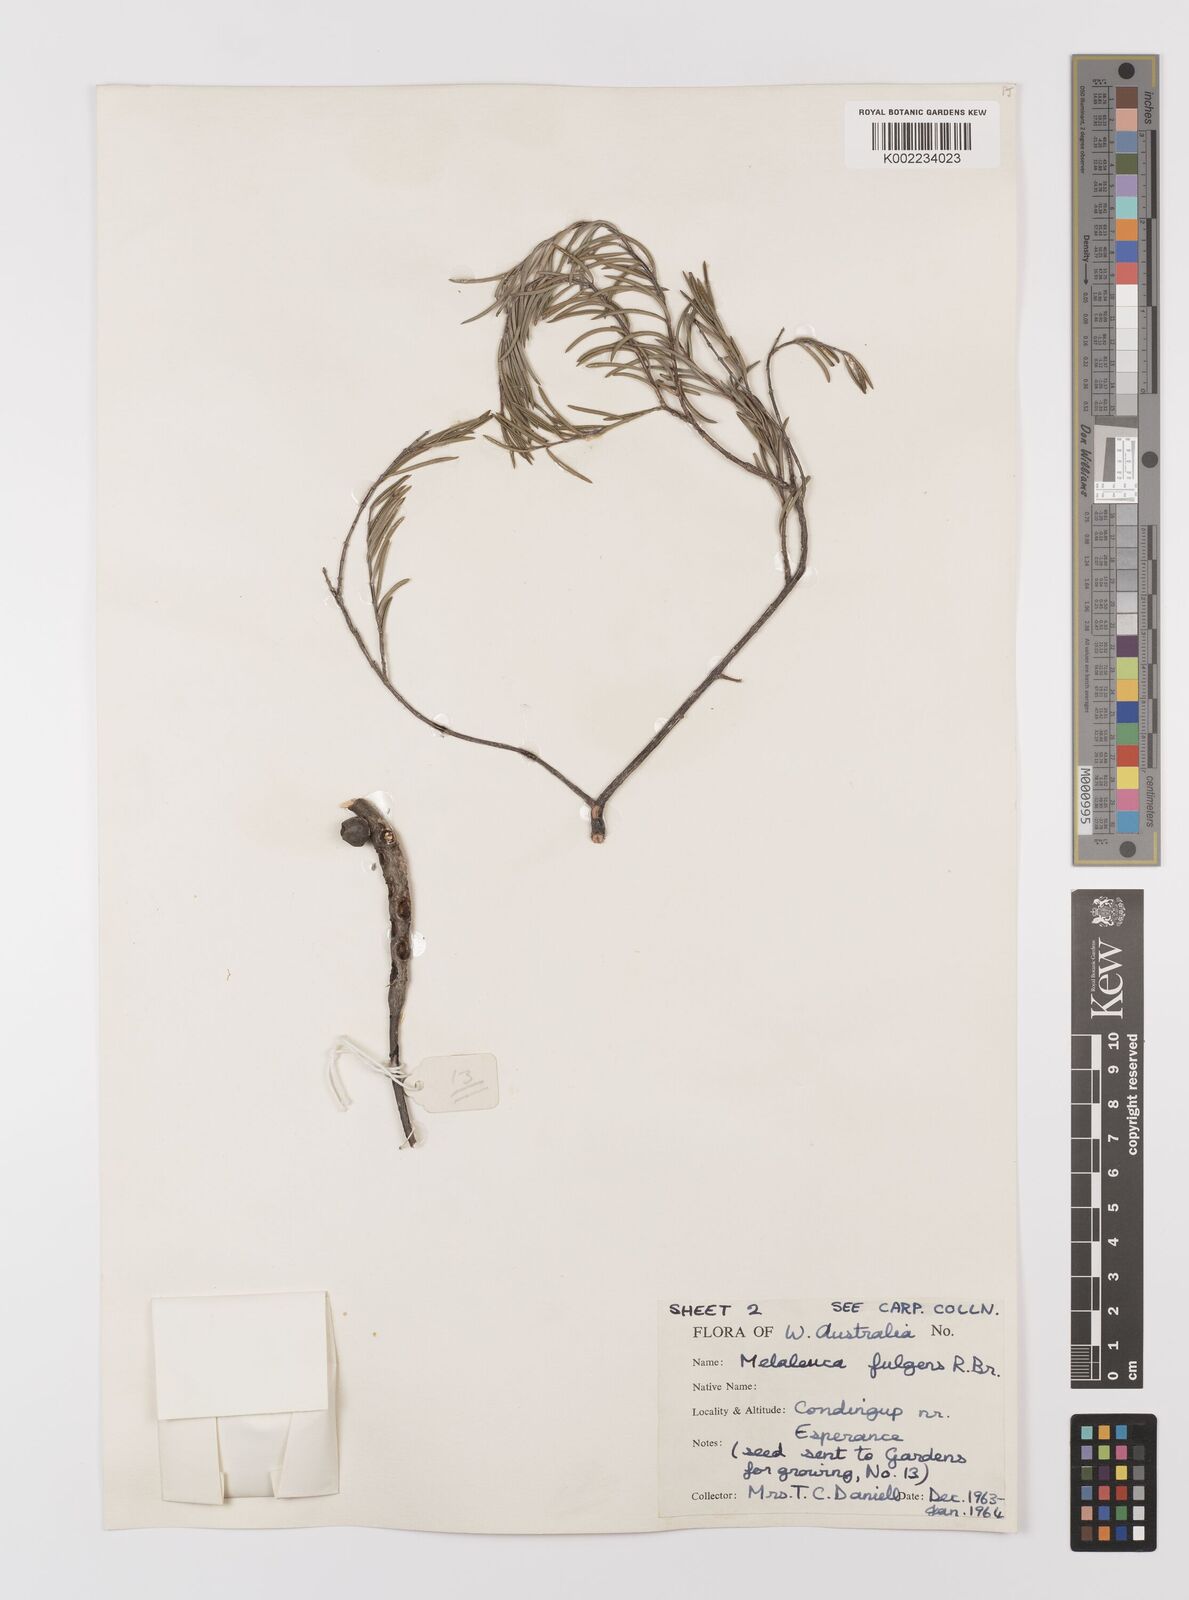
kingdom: Plantae
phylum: Tracheophyta
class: Magnoliopsida
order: Myrtales
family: Myrtaceae
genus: Melaleuca
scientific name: Melaleuca fulgens
